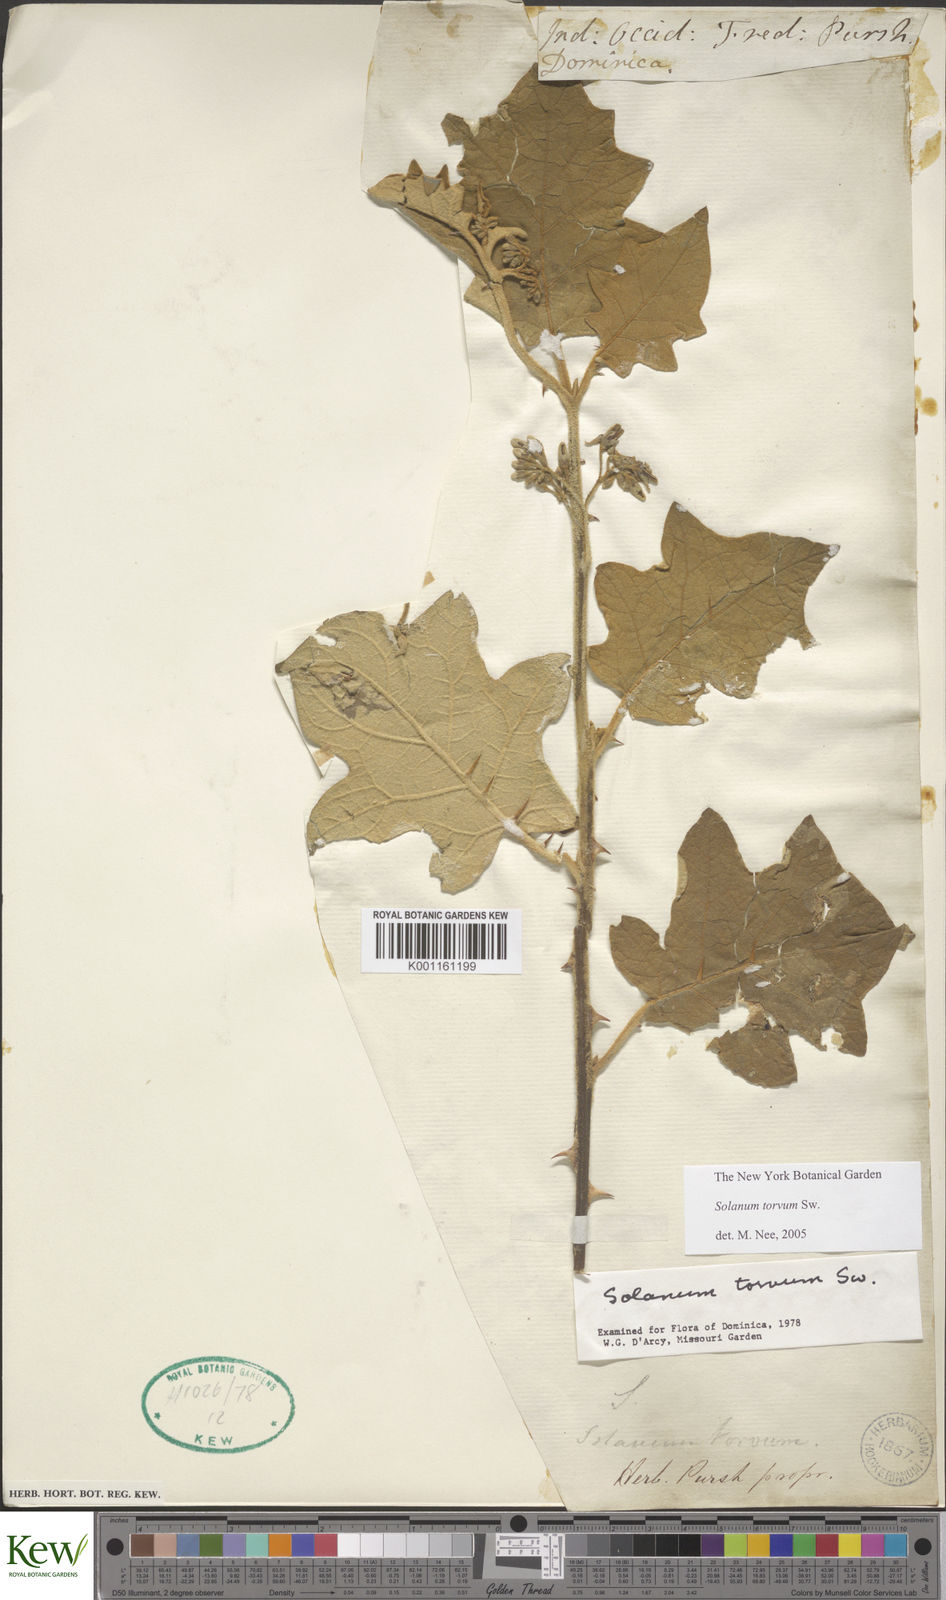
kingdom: Plantae
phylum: Tracheophyta
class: Magnoliopsida
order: Solanales
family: Solanaceae
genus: Solanum
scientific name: Solanum torvum
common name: Turkey berry
